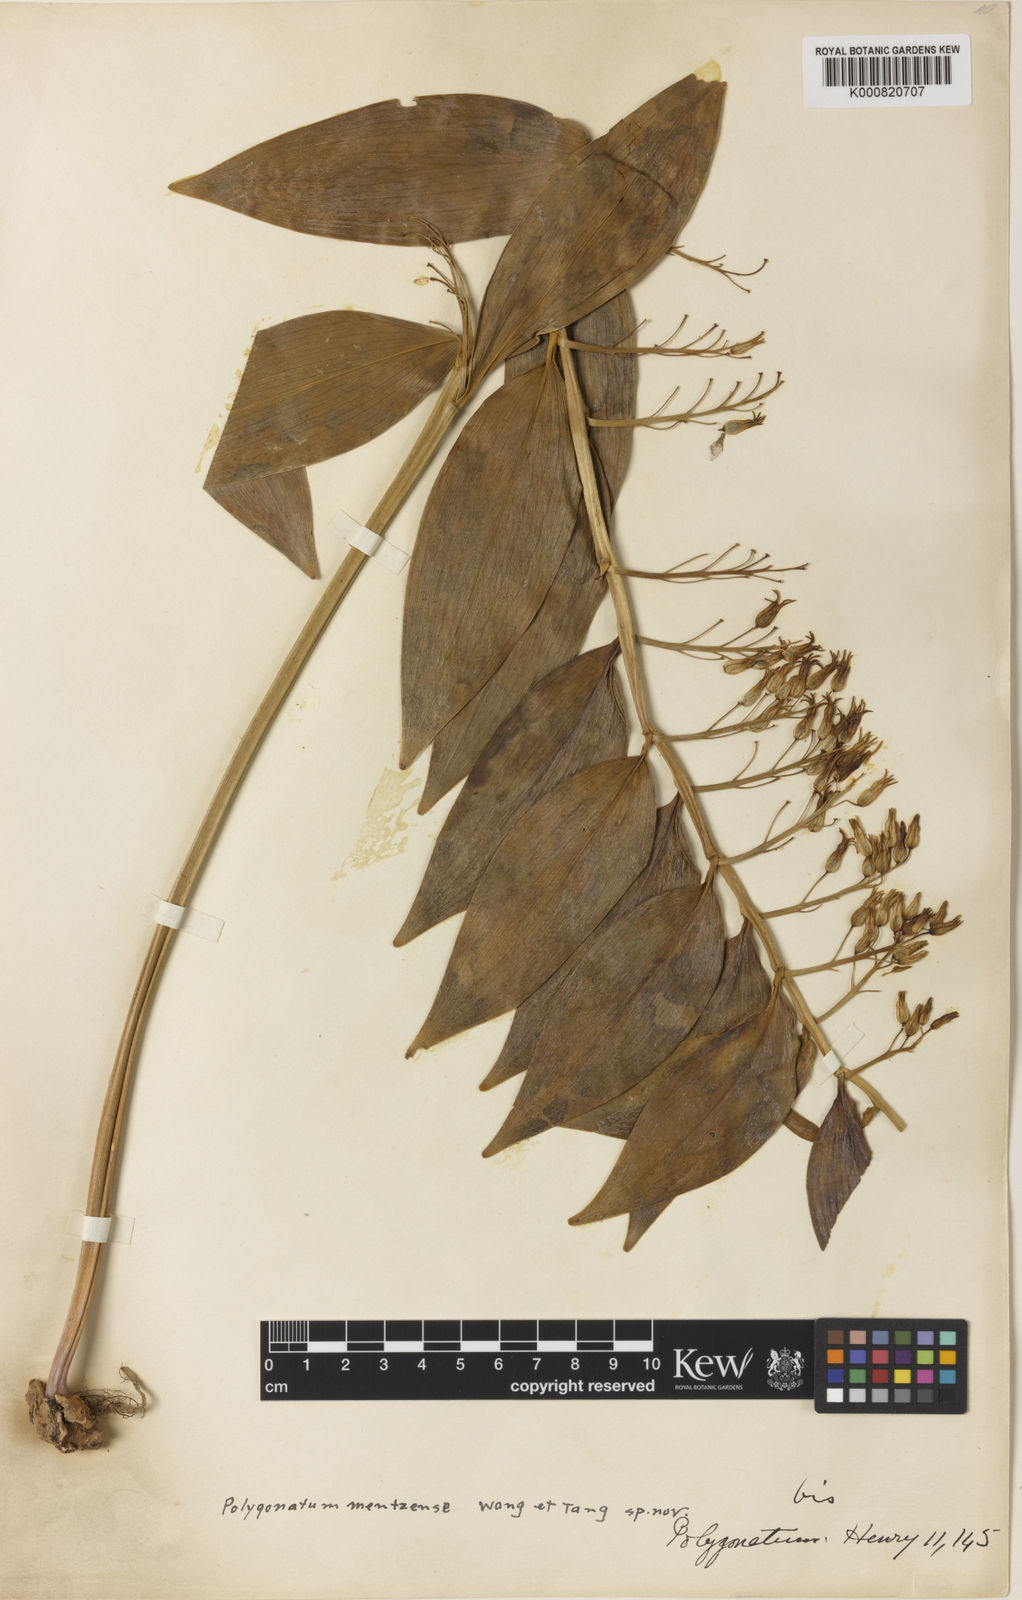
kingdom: Plantae
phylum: Tracheophyta
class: Liliopsida
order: Asparagales
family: Asparagaceae
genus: Polygonatum
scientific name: Polygonatum mengtzense
